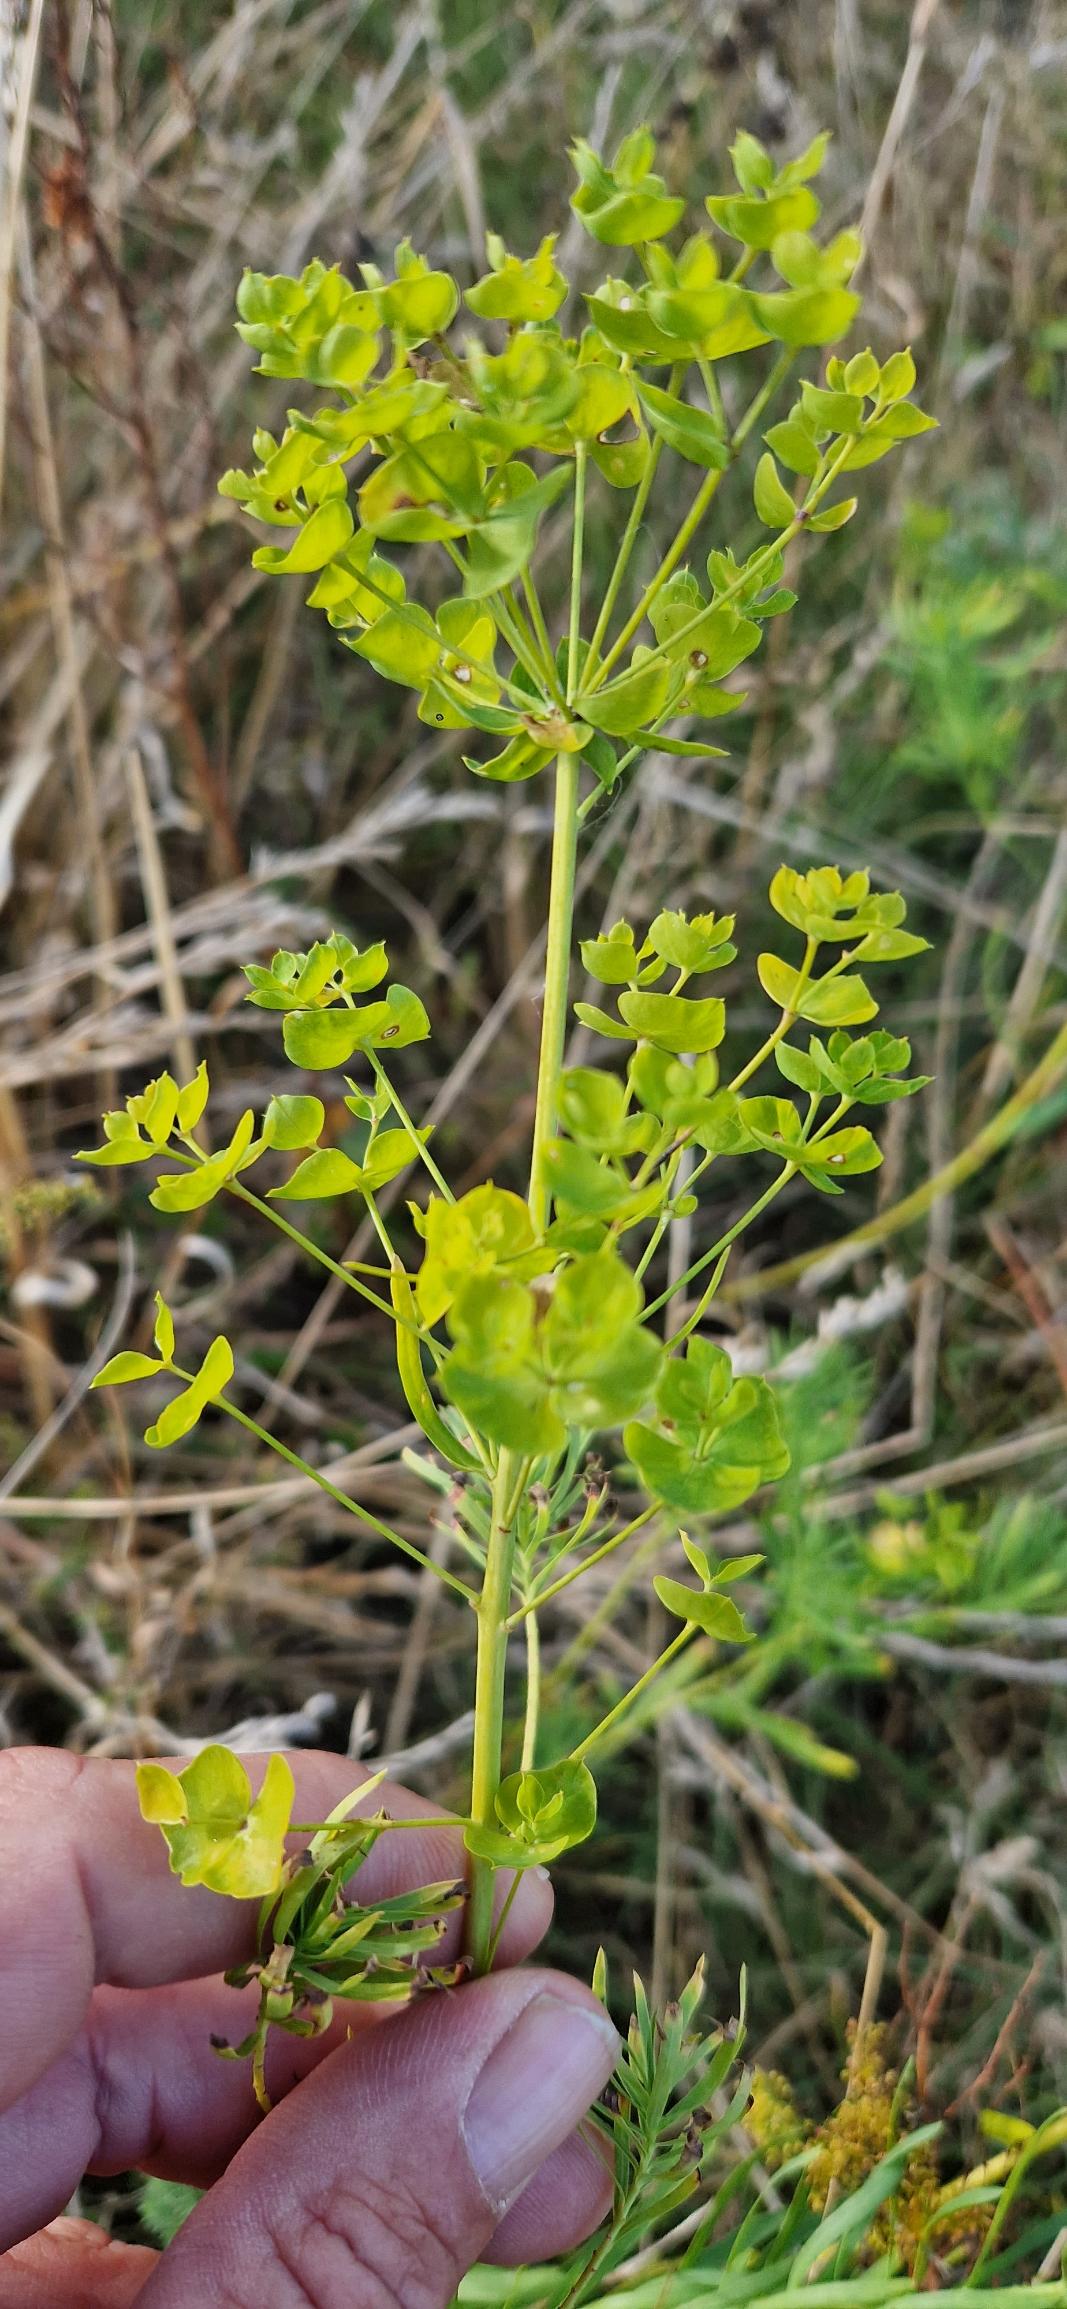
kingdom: Plantae
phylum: Tracheophyta
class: Magnoliopsida
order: Malpighiales
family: Euphorbiaceae
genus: Euphorbia
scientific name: Euphorbia esula
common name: Langbladet vortemælk
